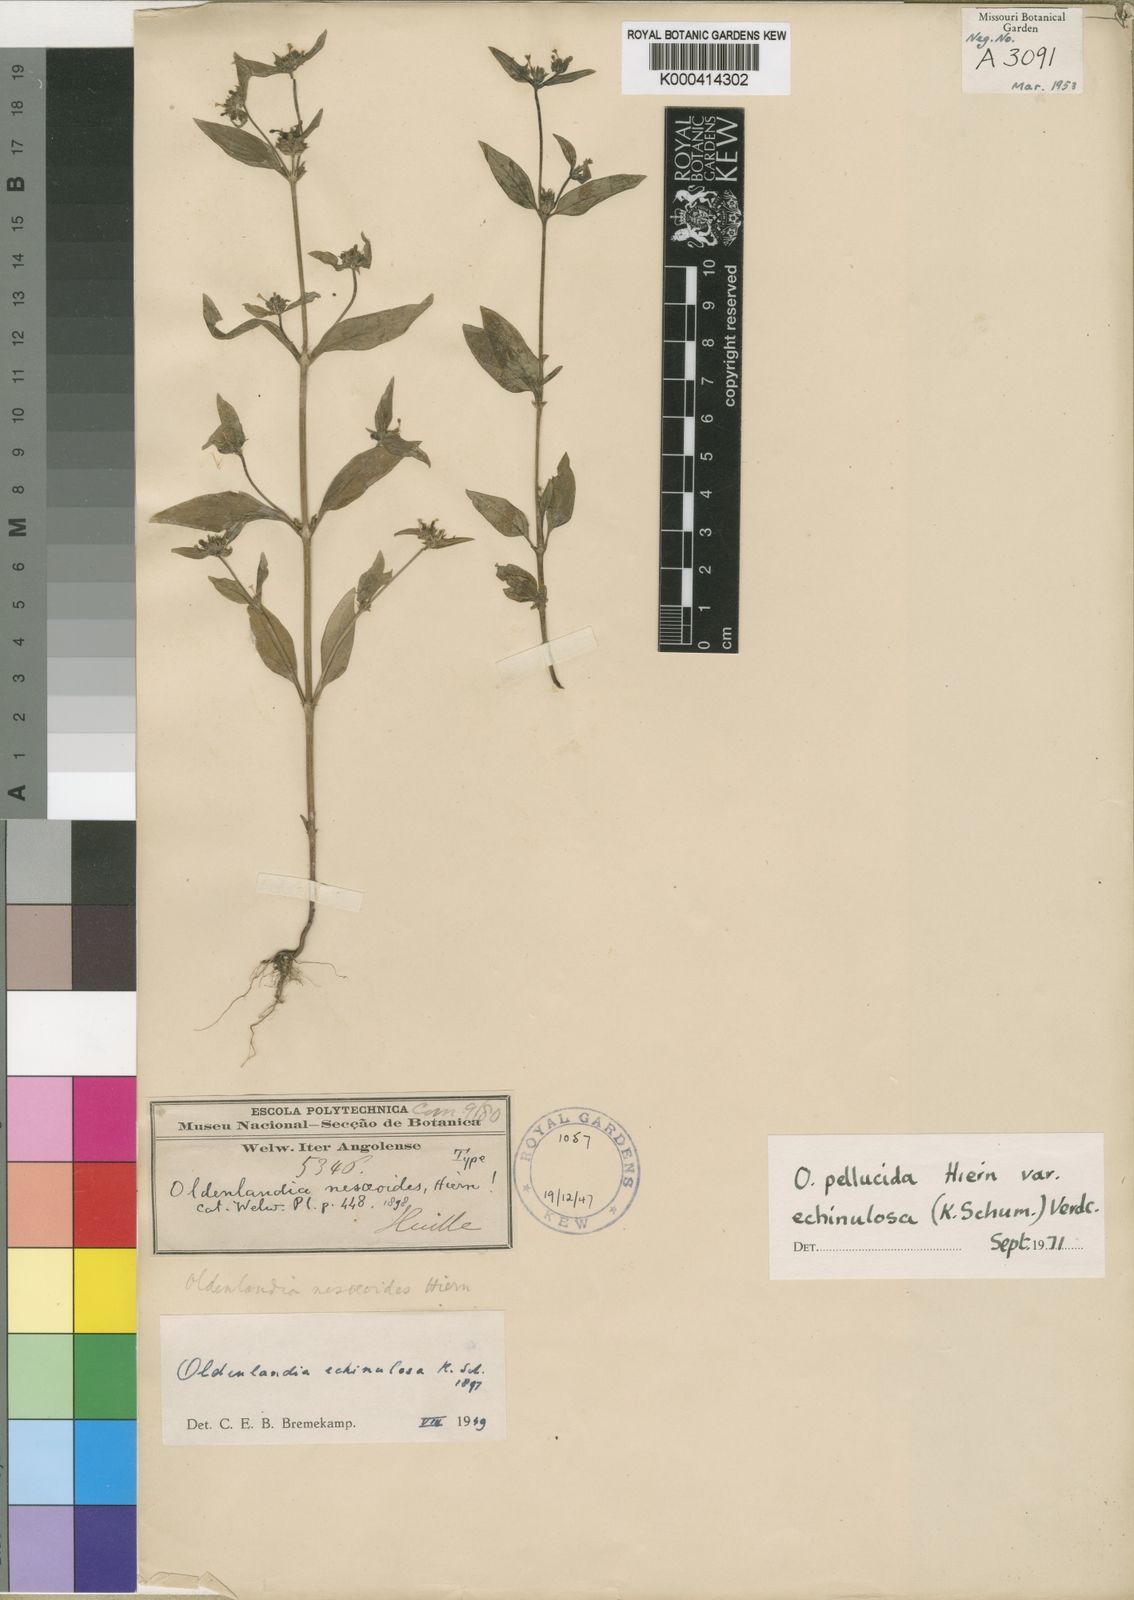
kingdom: Plantae
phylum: Tracheophyta
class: Magnoliopsida
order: Gentianales
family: Rubiaceae
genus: Oldenlandia
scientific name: Oldenlandia echinulosa
